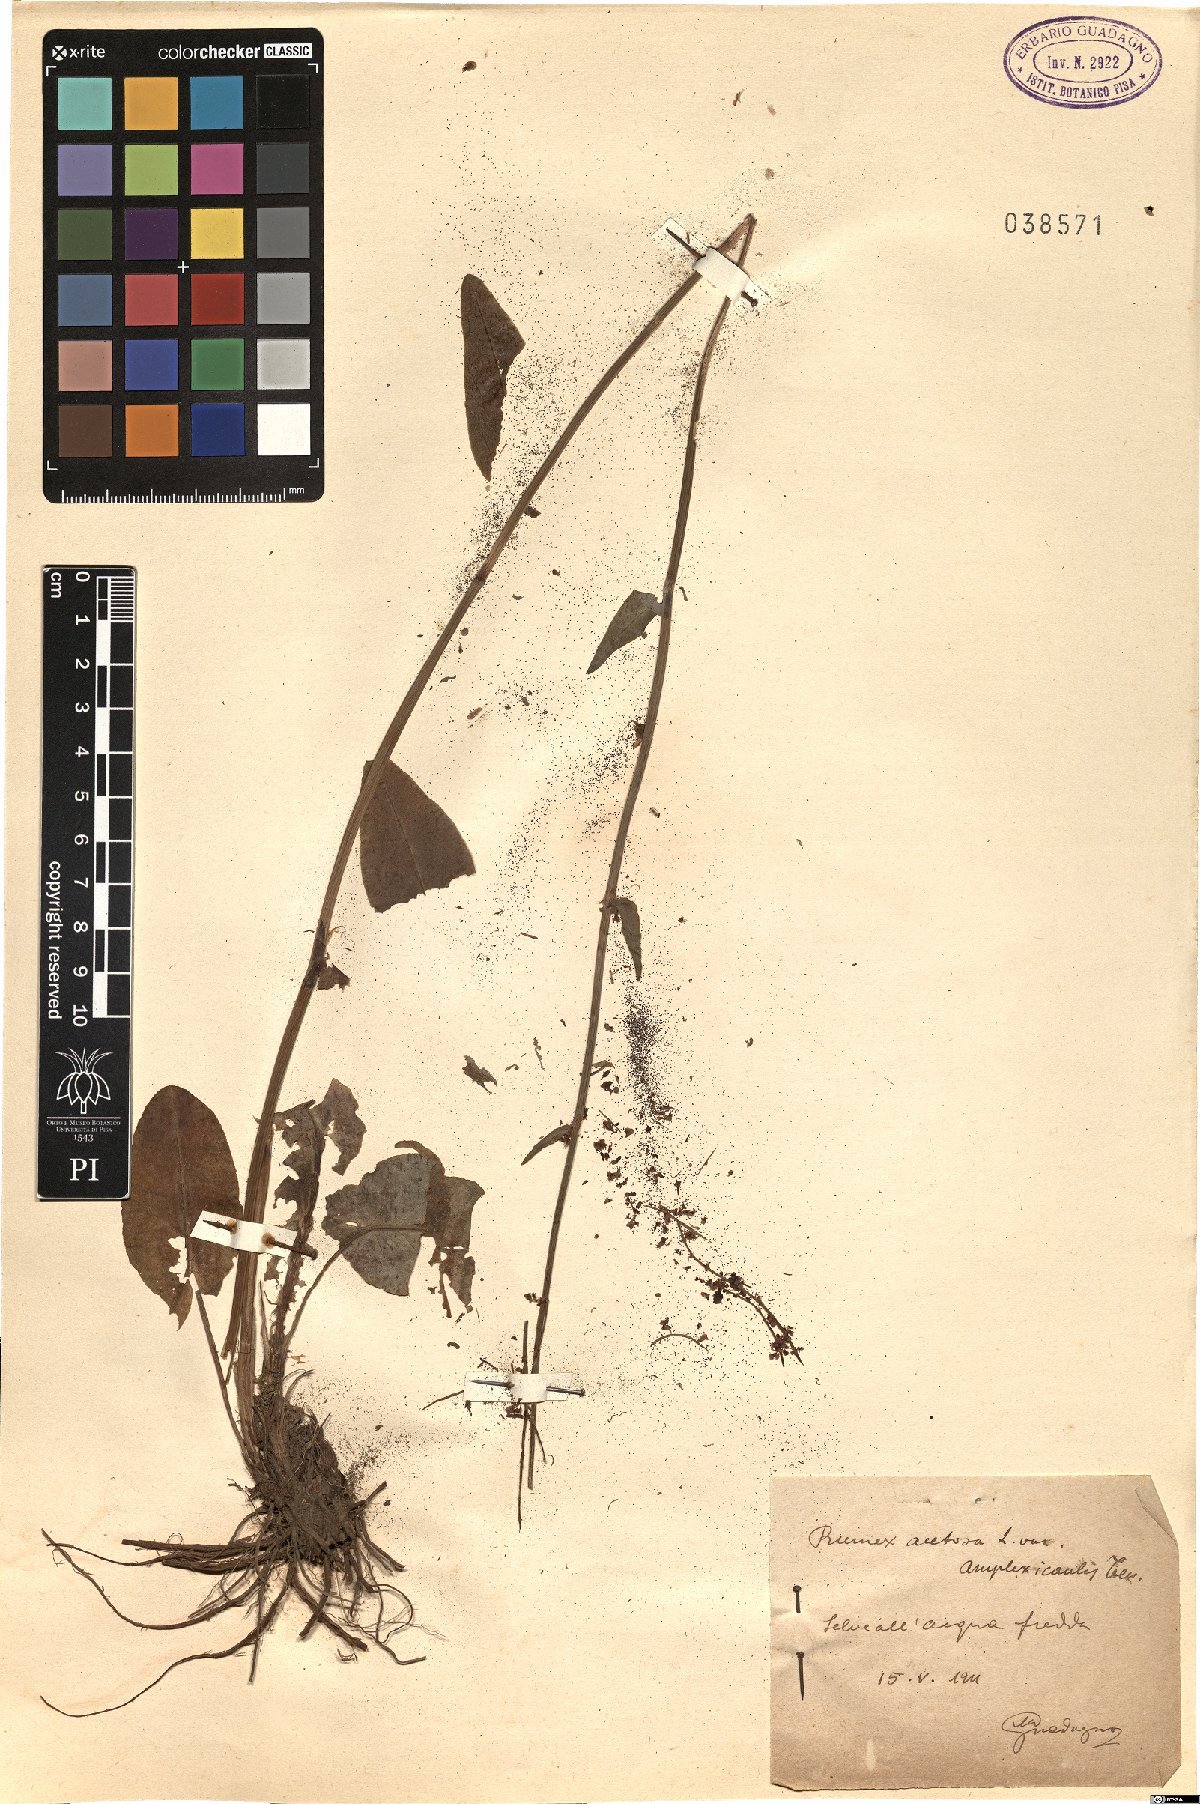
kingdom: Plantae
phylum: Tracheophyta
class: Magnoliopsida
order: Caryophyllales
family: Polygonaceae
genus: Rumex
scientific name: Rumex arifolius
